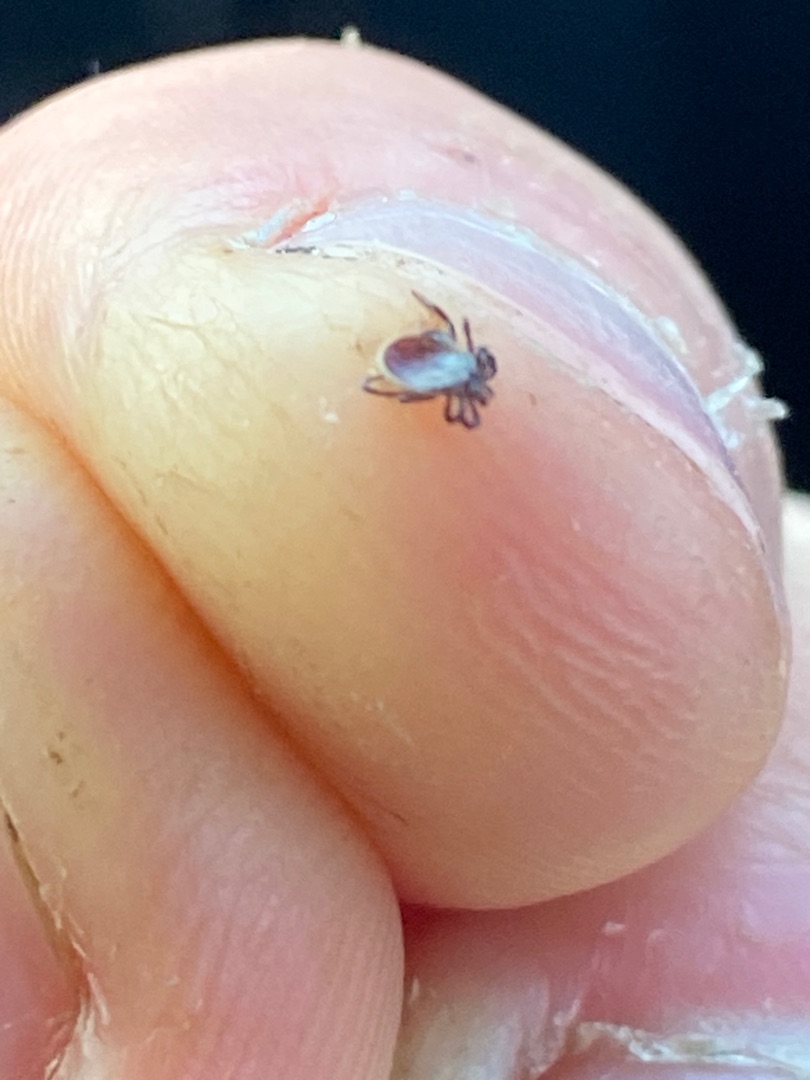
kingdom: Animalia
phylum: Arthropoda
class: Arachnida
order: Ixodida
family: Ixodidae
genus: Ixodes
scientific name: Ixodes ricinus
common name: Skovflåt
